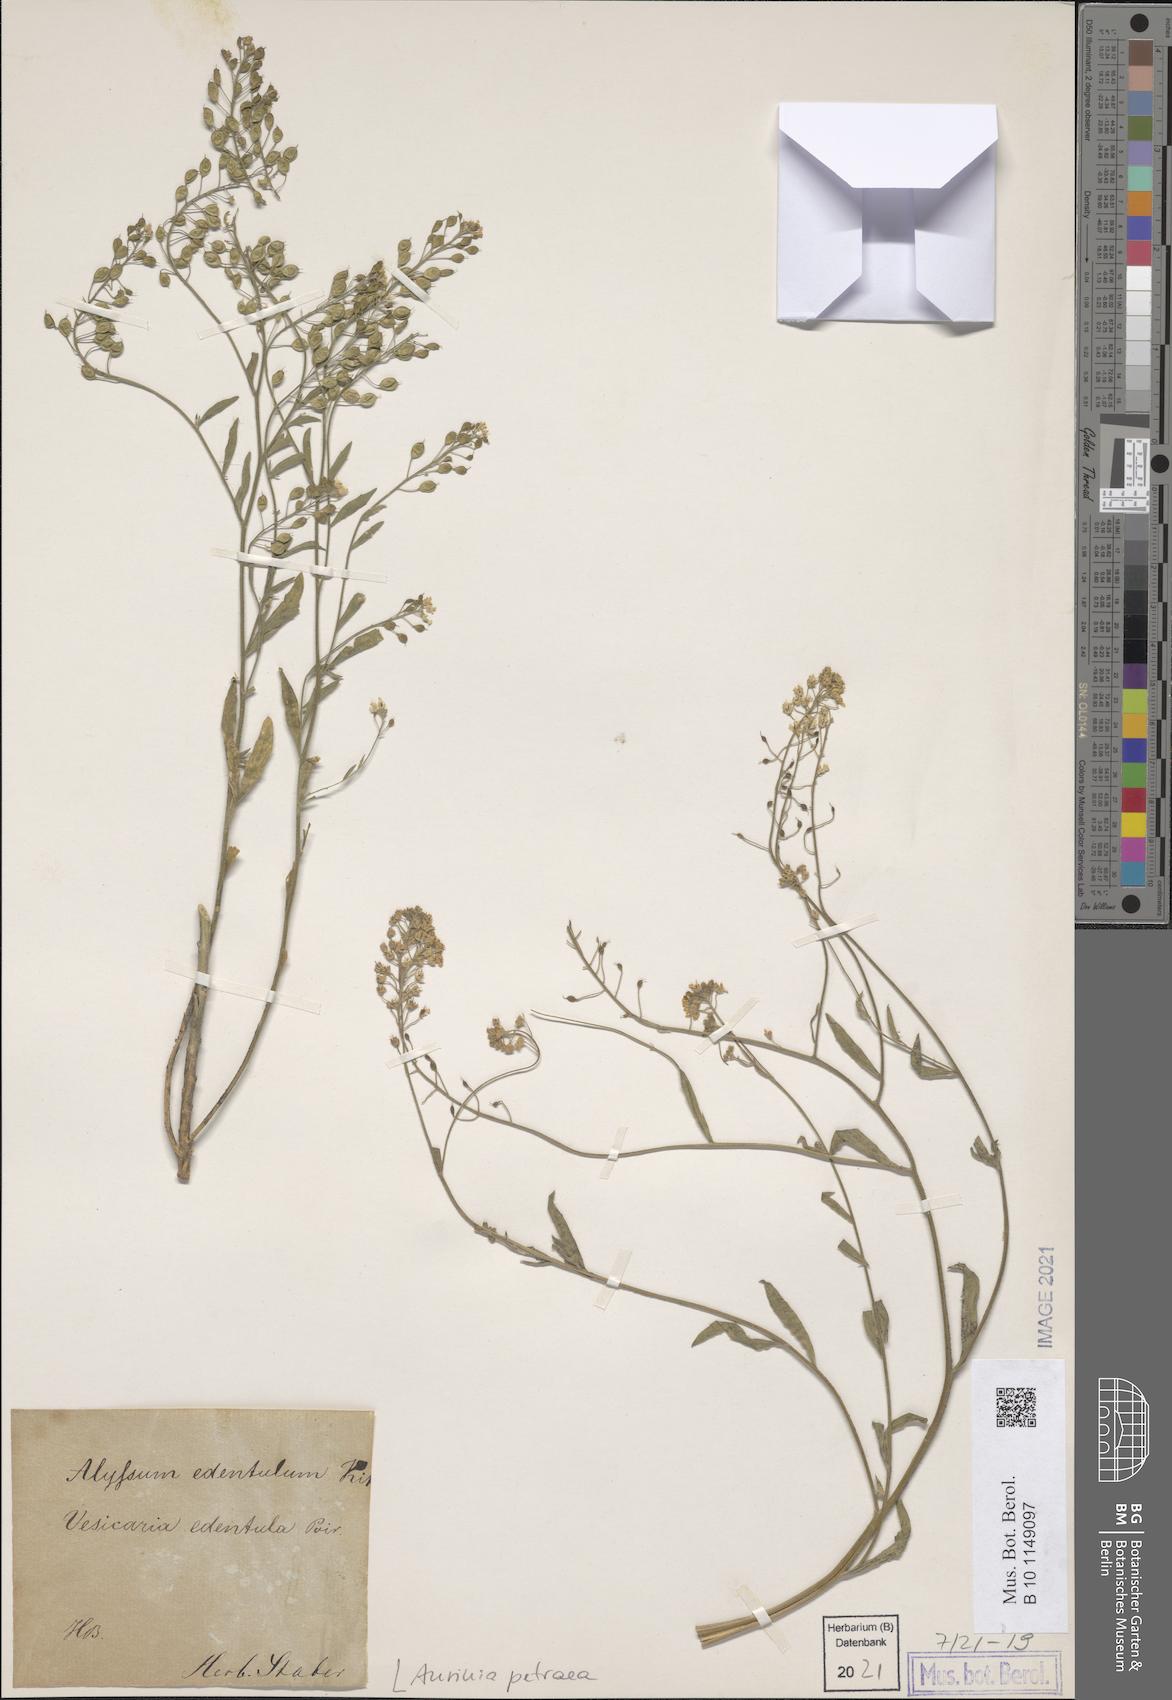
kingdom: Plantae
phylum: Tracheophyta
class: Magnoliopsida
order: Brassicales
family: Brassicaceae
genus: Aurinia
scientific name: Aurinia petraea
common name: Goldentuft
